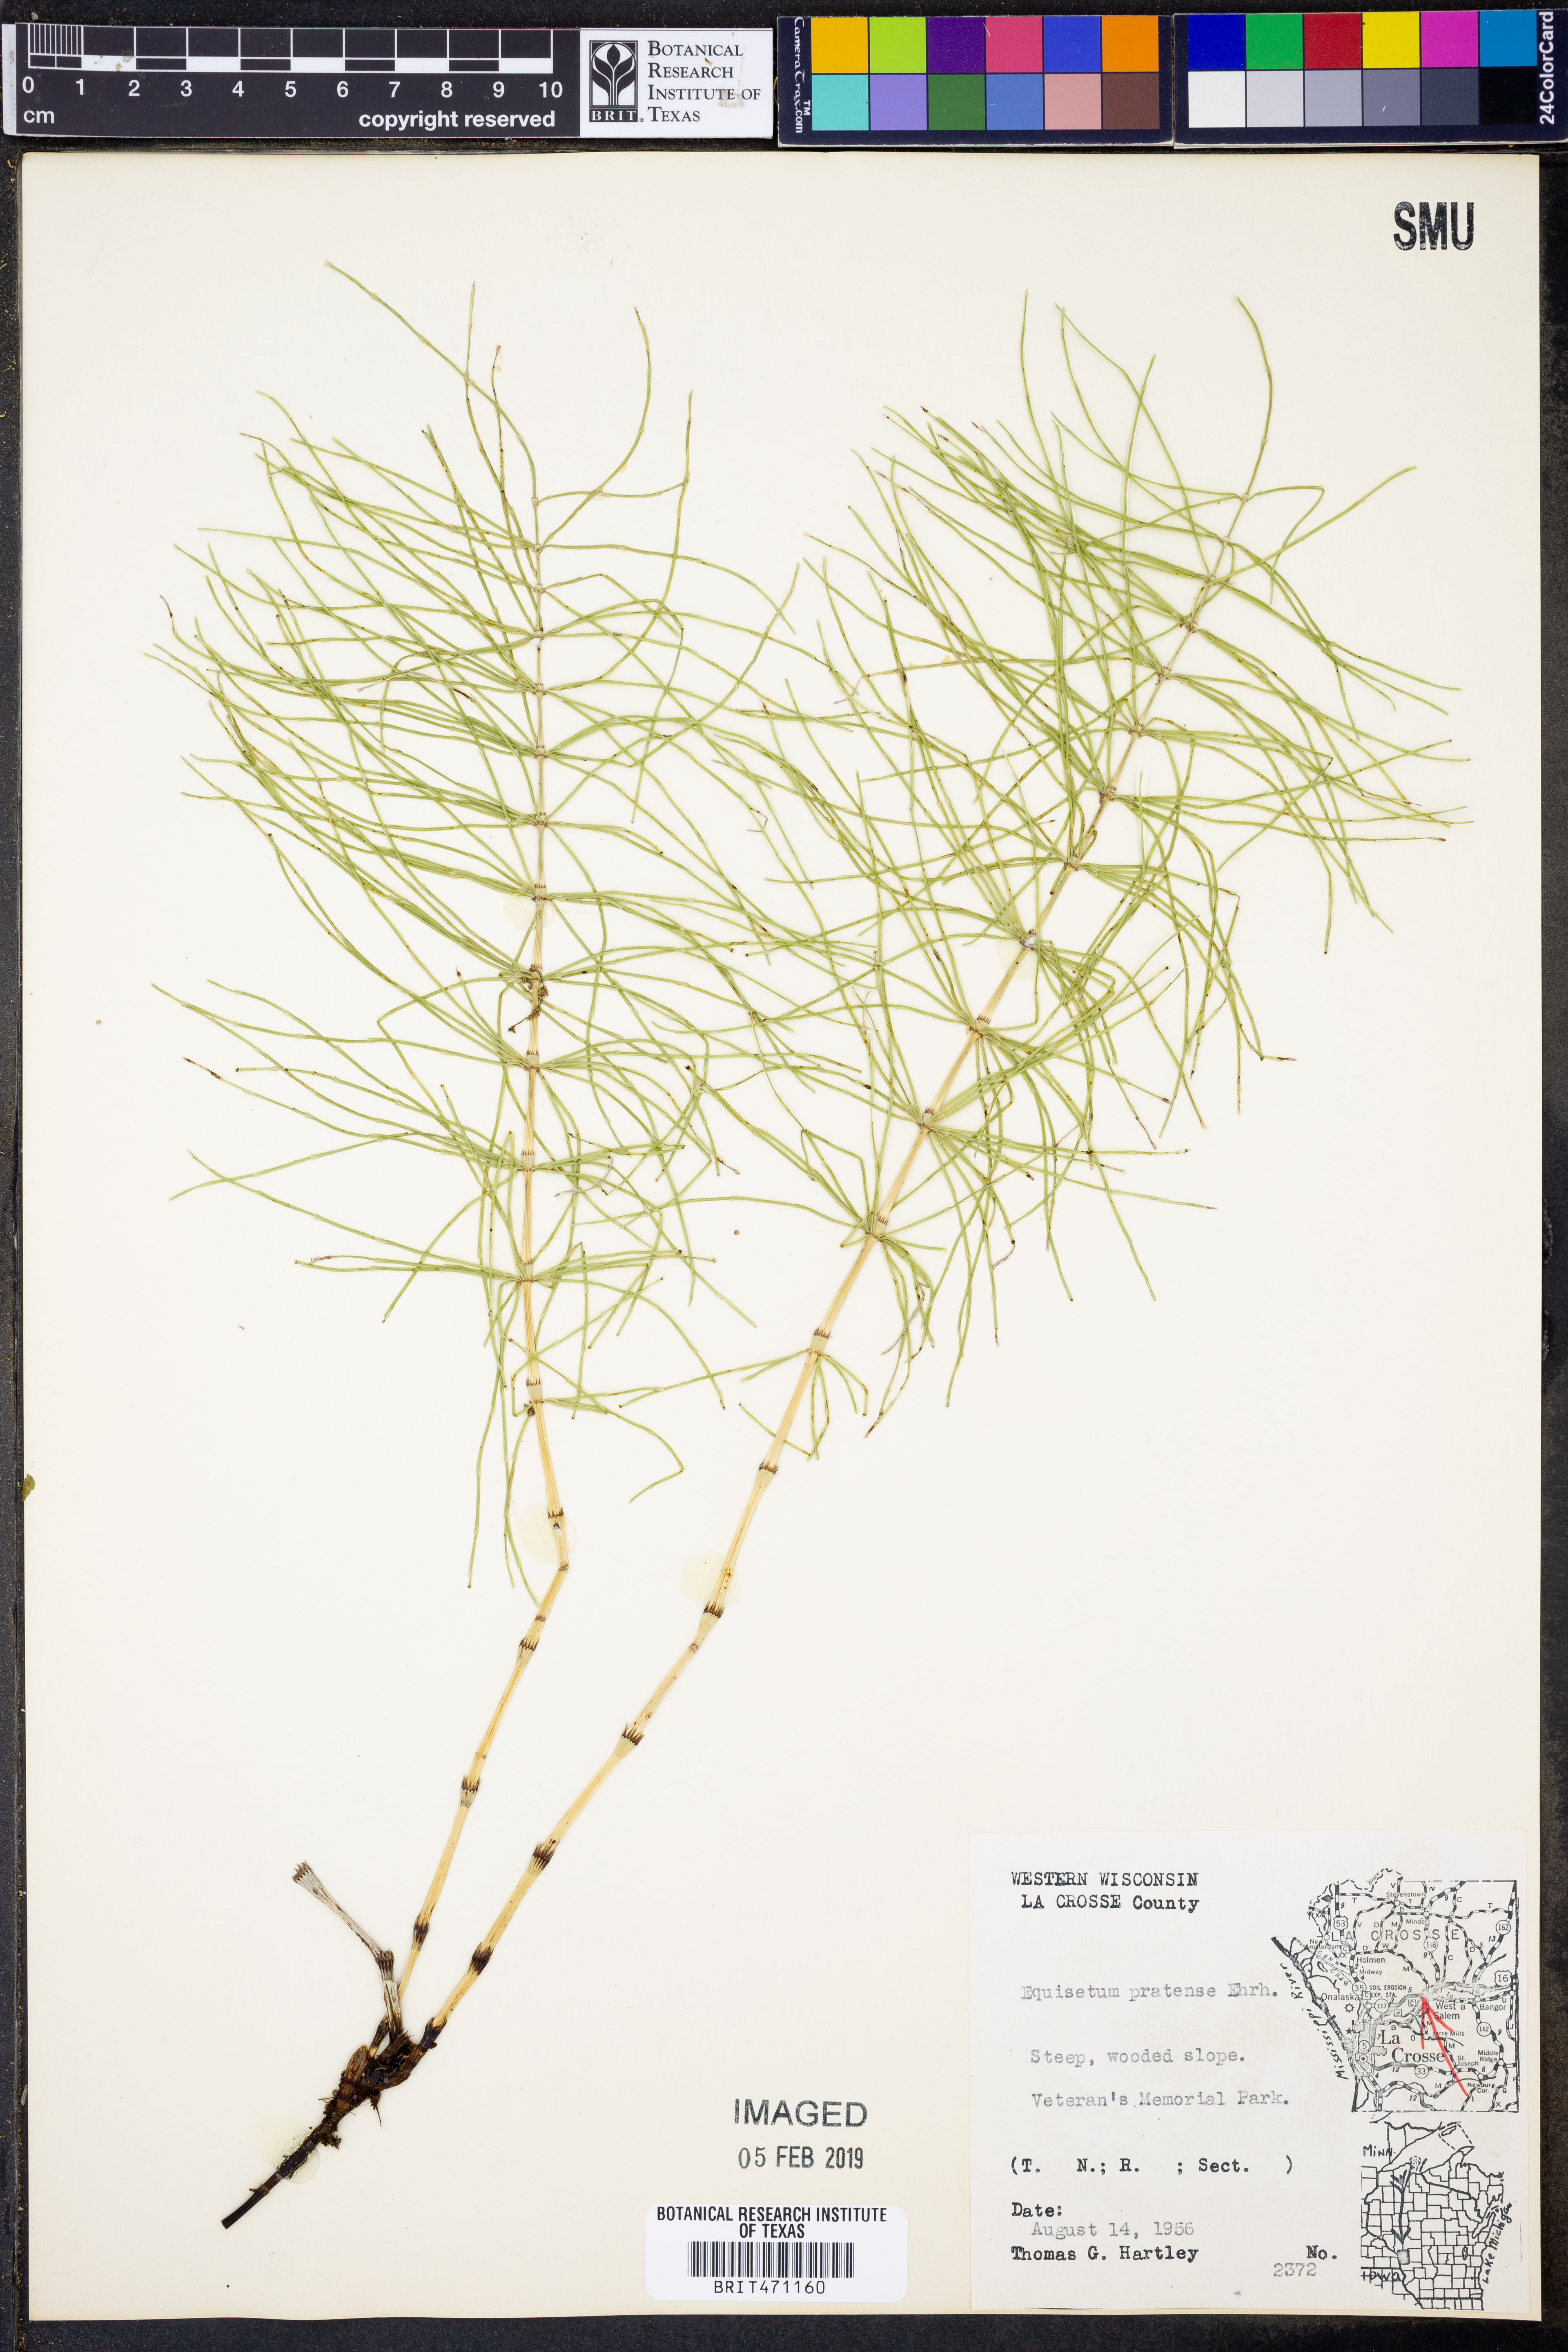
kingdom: Plantae
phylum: Tracheophyta
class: Polypodiopsida
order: Equisetales
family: Equisetaceae
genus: Equisetum
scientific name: Equisetum pratense
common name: Meadow horsetail
